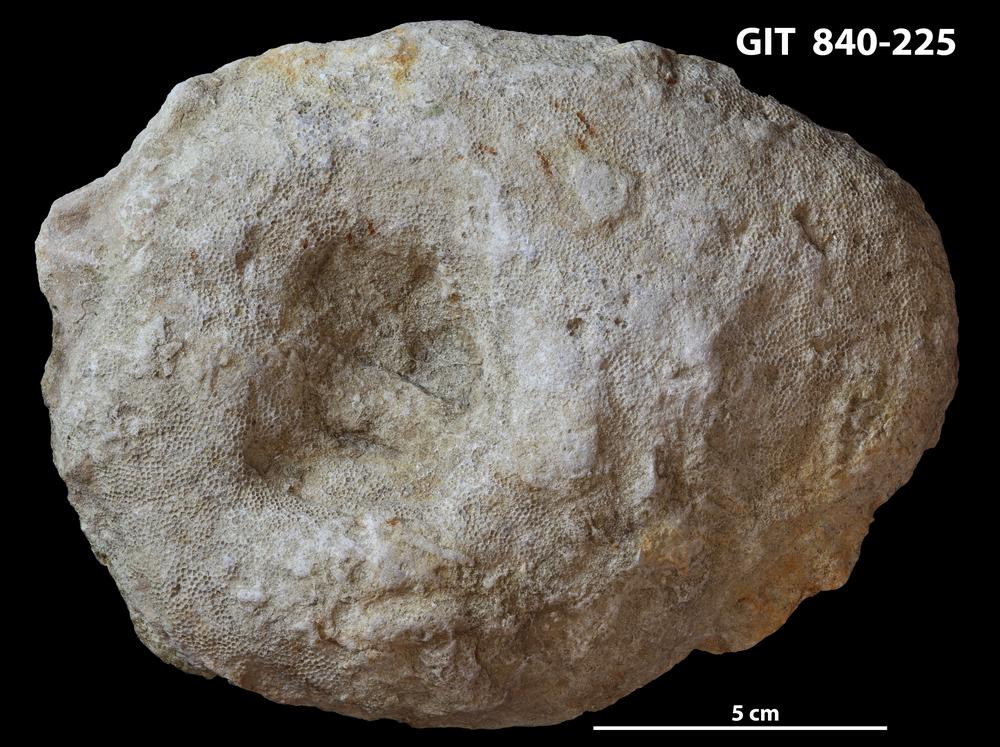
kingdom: Animalia
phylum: Cnidaria
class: Anthozoa
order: Heliolitina
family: Proheliolitidae
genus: Protoheliolites
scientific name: Protoheliolites
